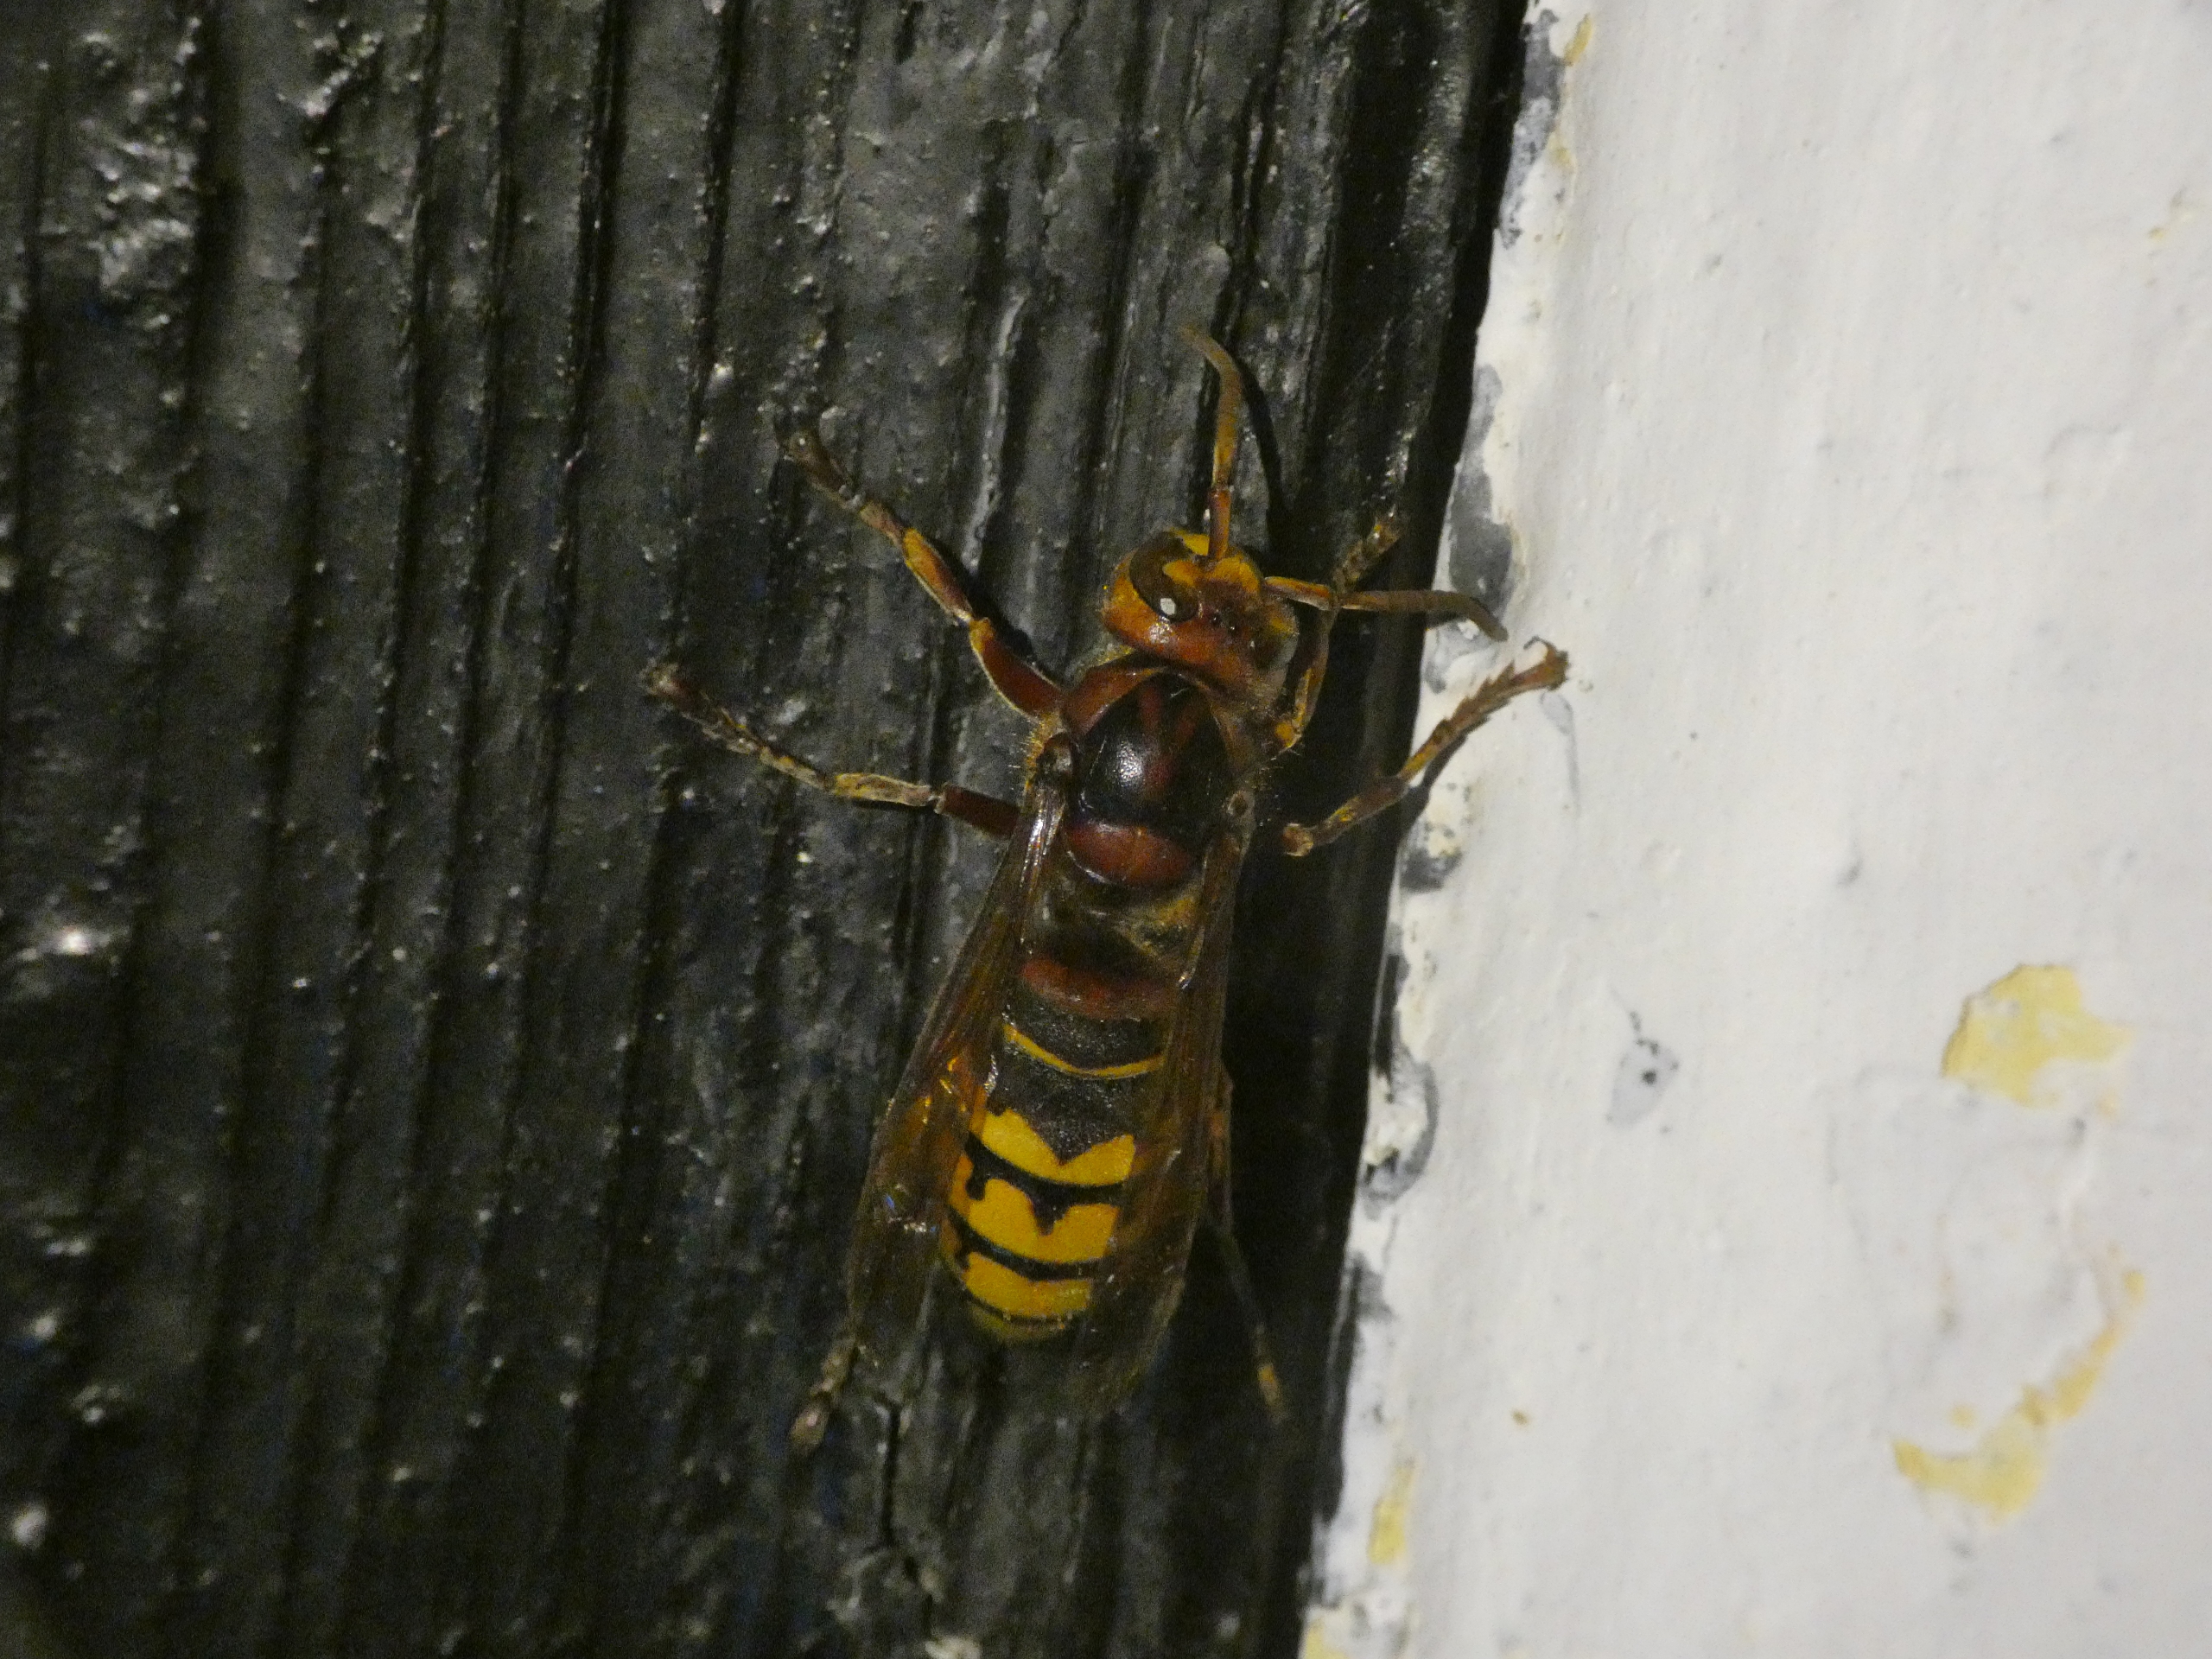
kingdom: Animalia
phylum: Arthropoda
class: Insecta
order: Hymenoptera
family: Vespidae
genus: Vespa
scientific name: Vespa crabro
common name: Stor gedehams
